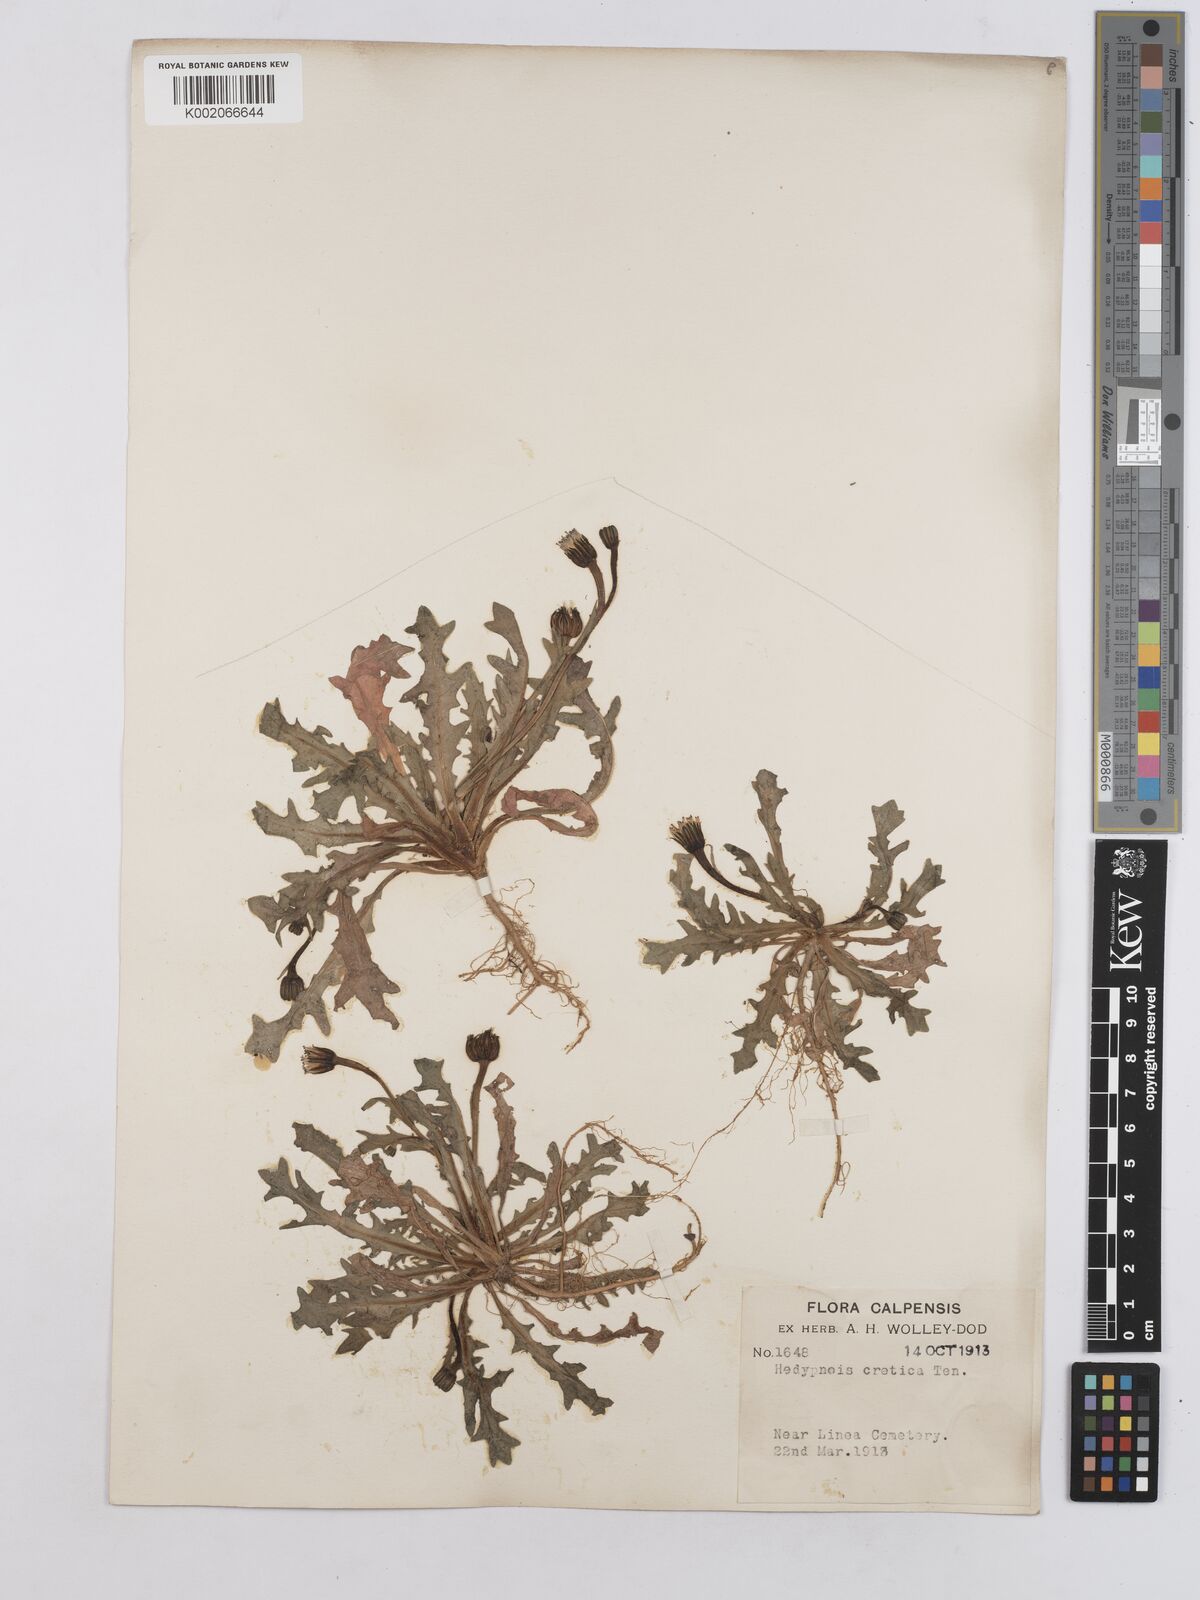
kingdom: Plantae
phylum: Tracheophyta
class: Magnoliopsida
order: Asterales
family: Asteraceae
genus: Hedypnois
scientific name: Hedypnois rhagadioloides
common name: Cretan weed
